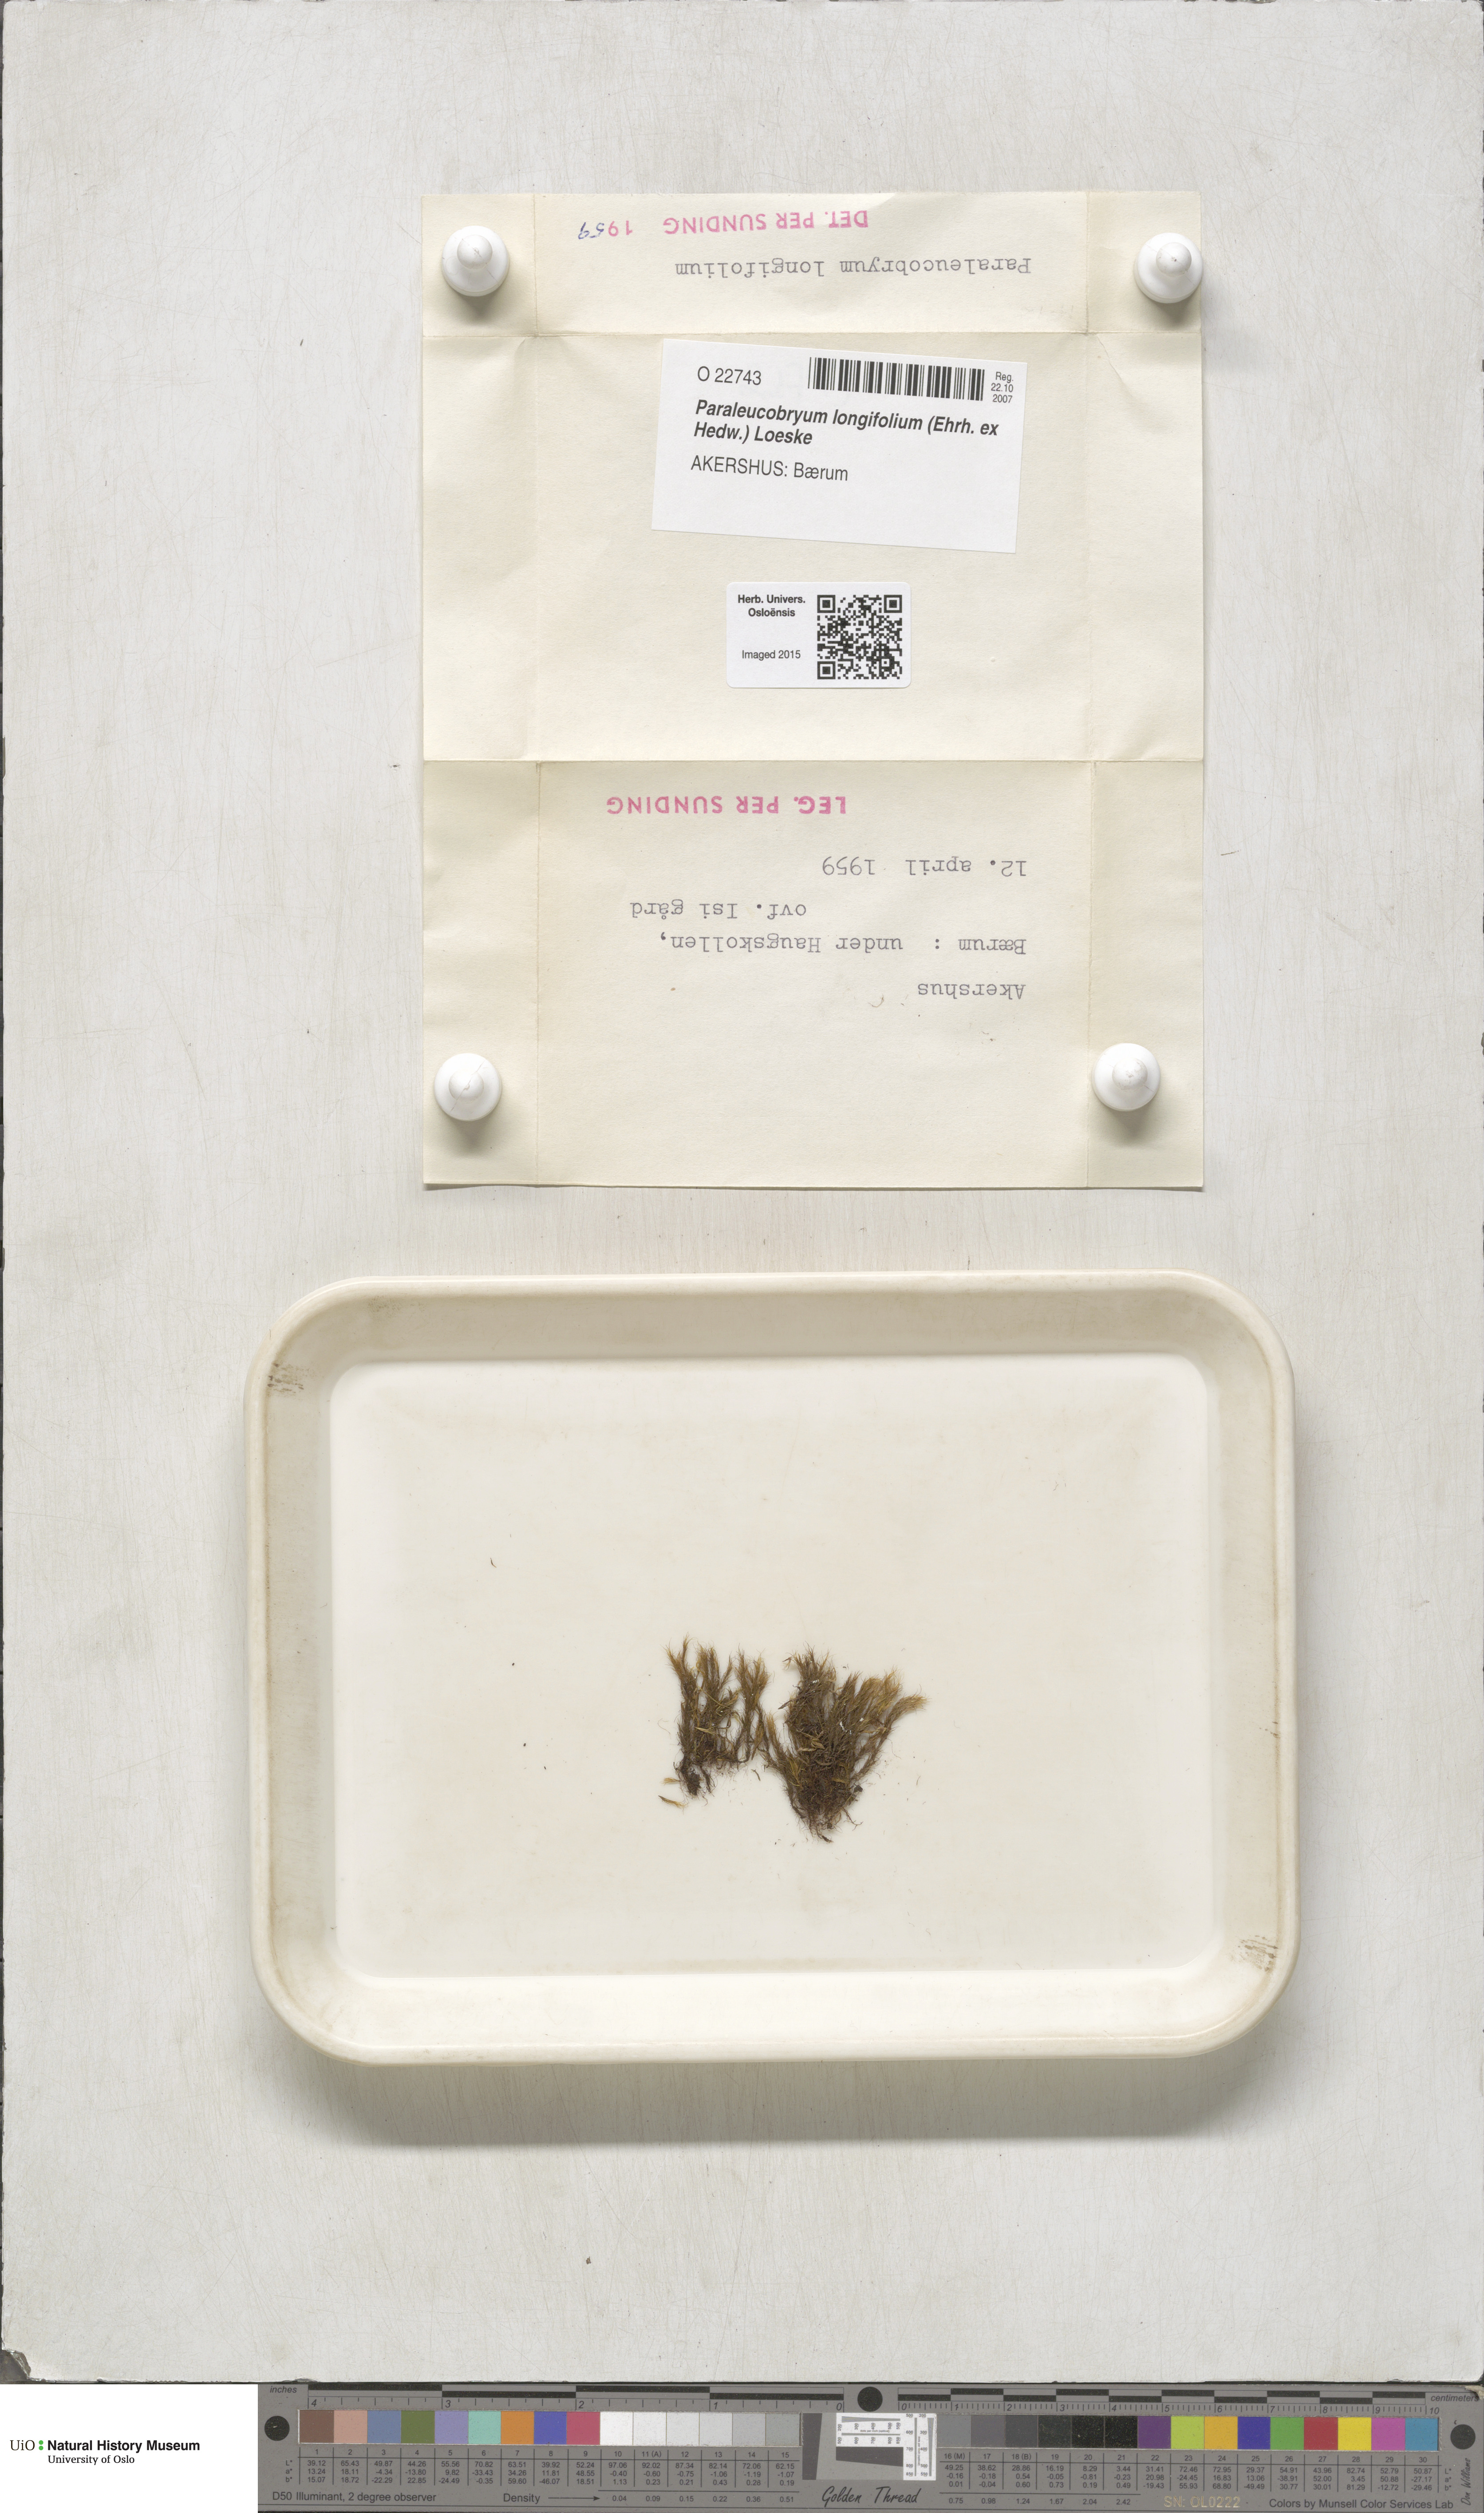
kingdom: Plantae
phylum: Bryophyta
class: Bryopsida
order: Dicranales
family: Dicranaceae
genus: Paraleucobryum
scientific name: Paraleucobryum longifolium
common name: Long-leaved fork moss
